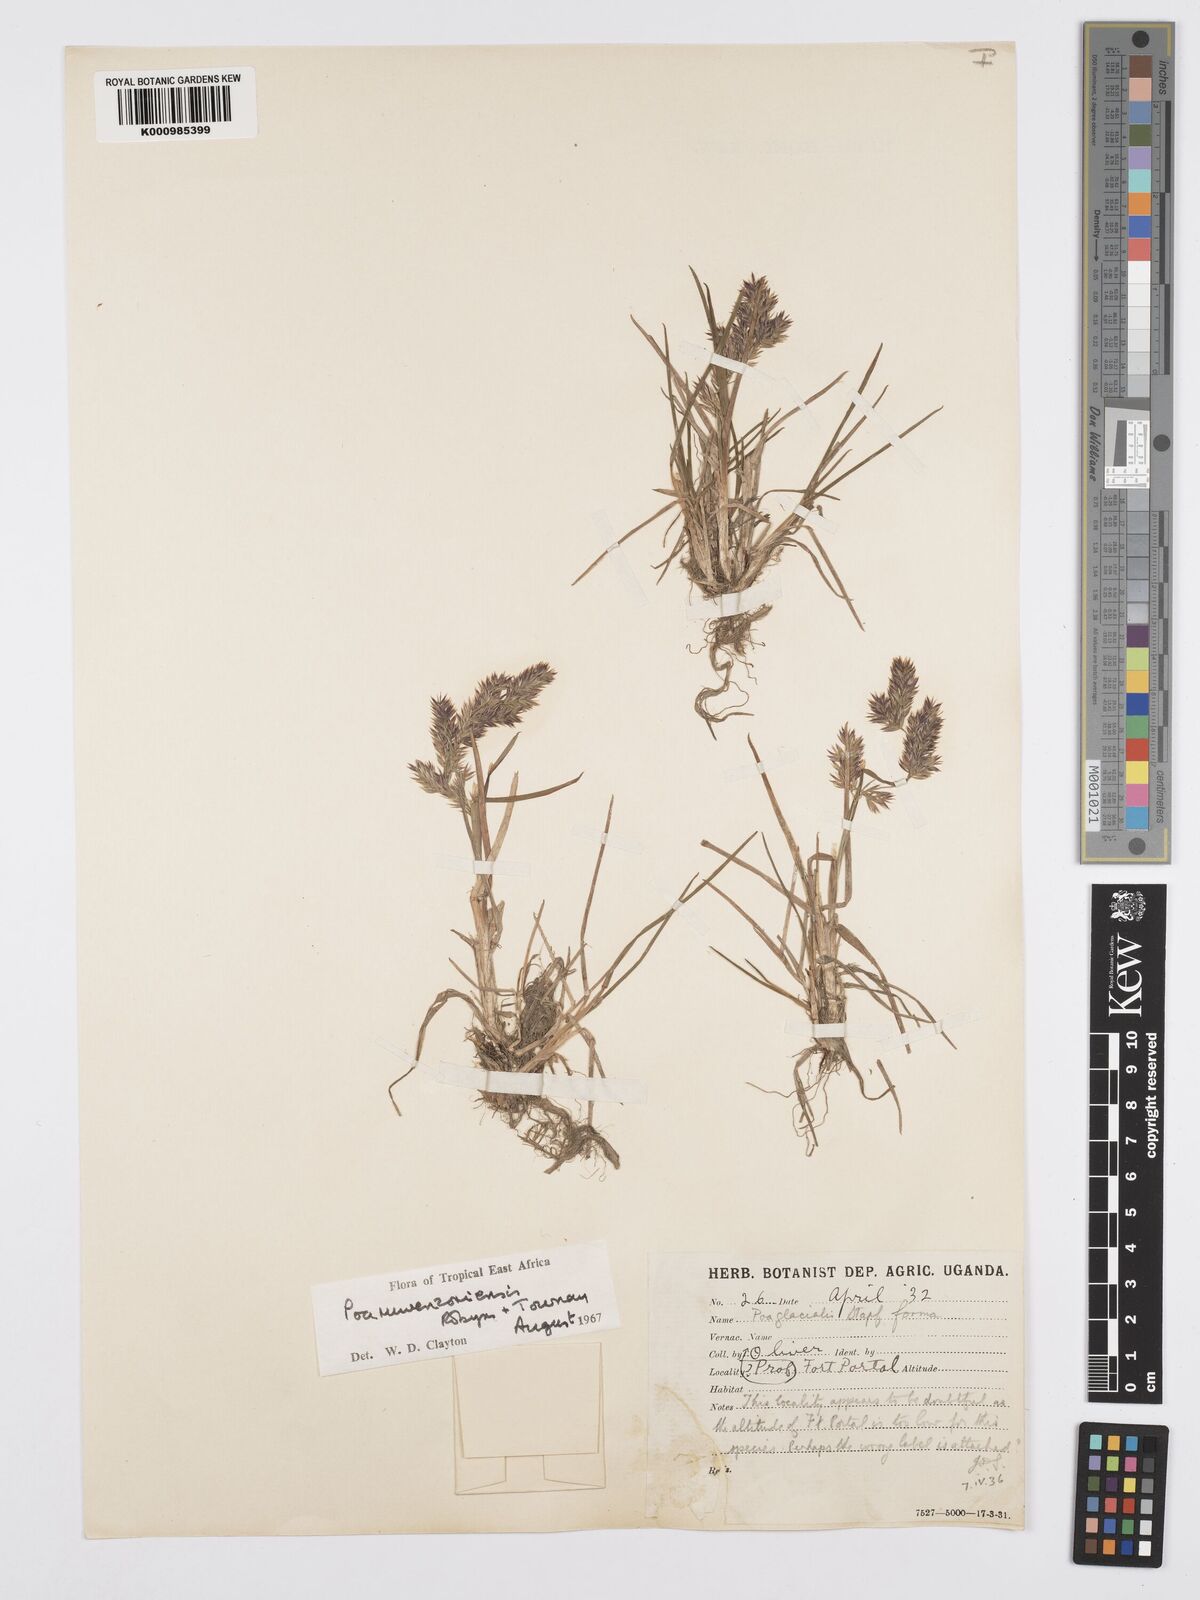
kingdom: Plantae
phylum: Tracheophyta
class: Liliopsida
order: Poales
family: Poaceae
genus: Poa
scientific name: Poa ruwenzoriensis
